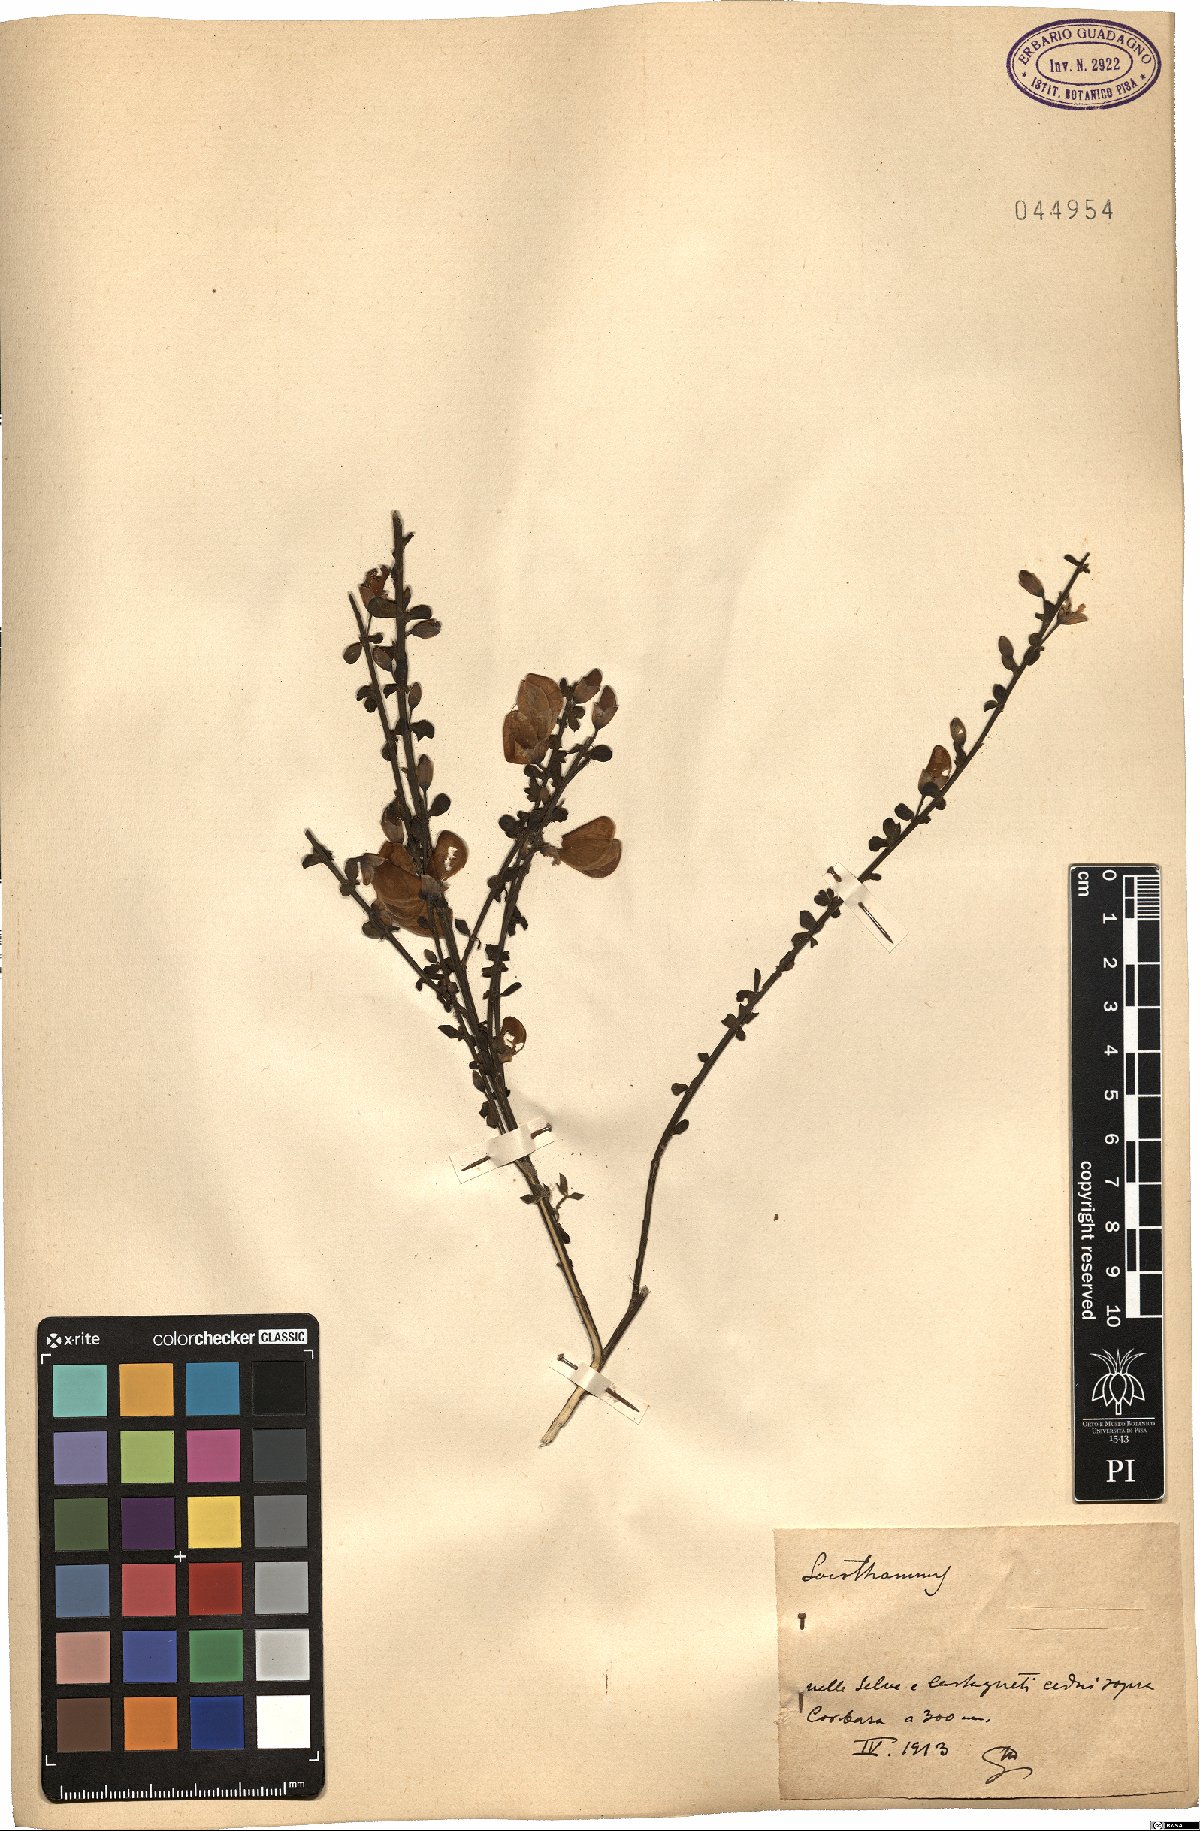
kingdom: Plantae
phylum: Tracheophyta
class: Magnoliopsida
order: Fabales
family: Fabaceae
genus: Cytisus
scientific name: Cytisus
